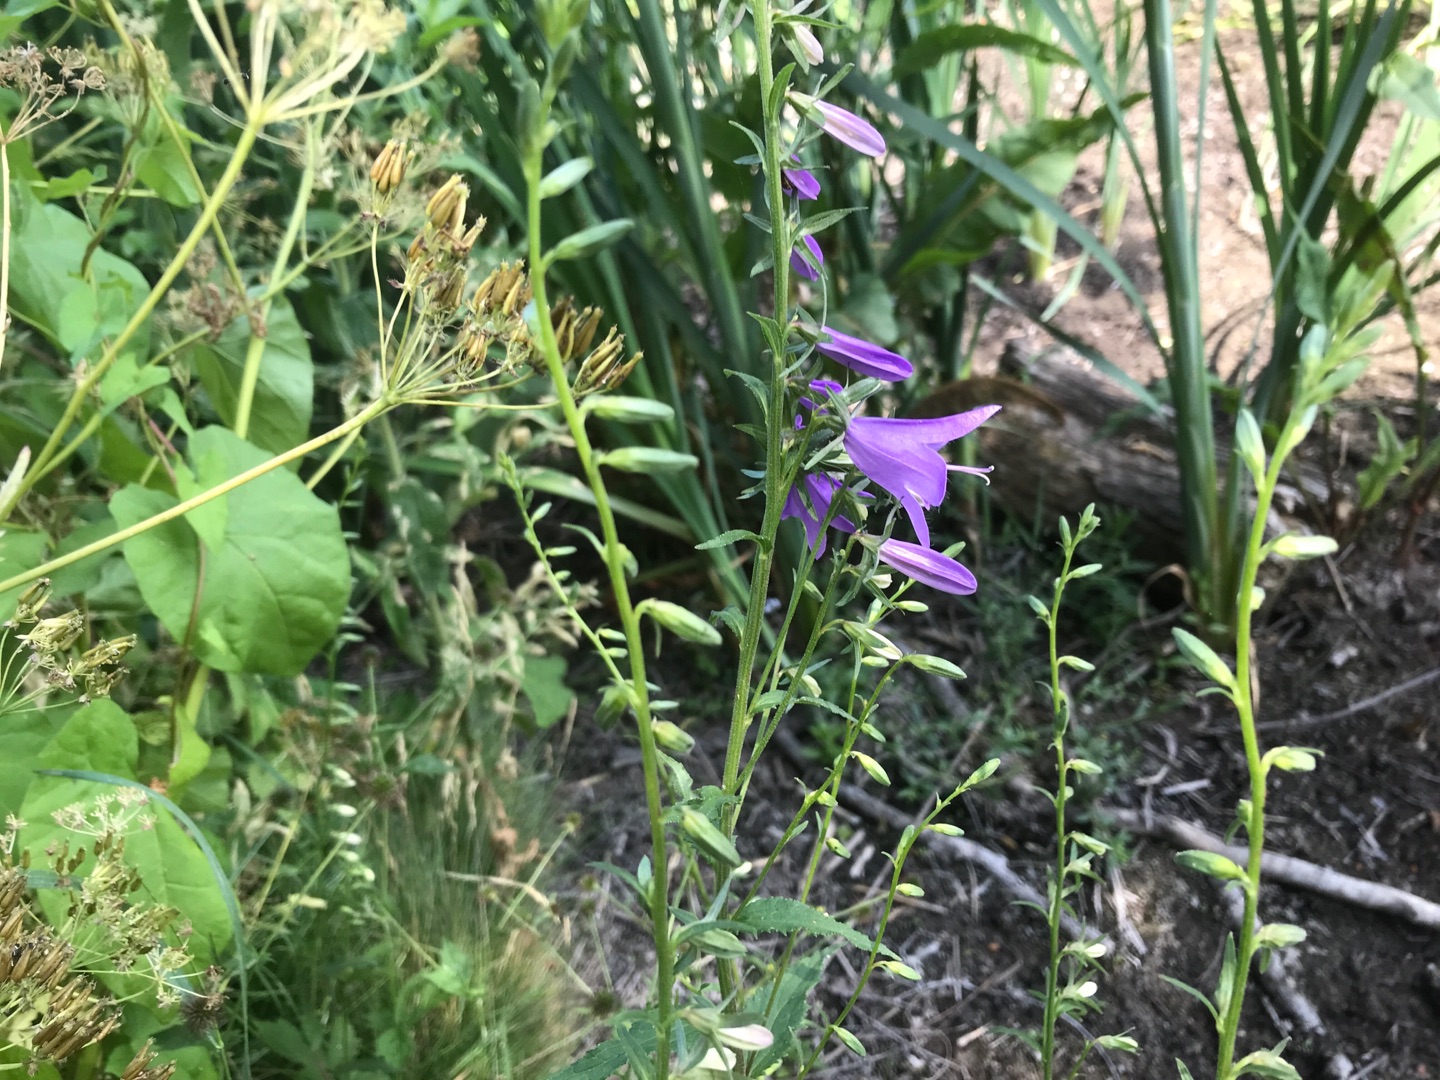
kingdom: Plantae
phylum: Tracheophyta
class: Magnoliopsida
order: Asterales
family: Campanulaceae
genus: Campanula
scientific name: Campanula rapunculoides
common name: Ensidig klokke
